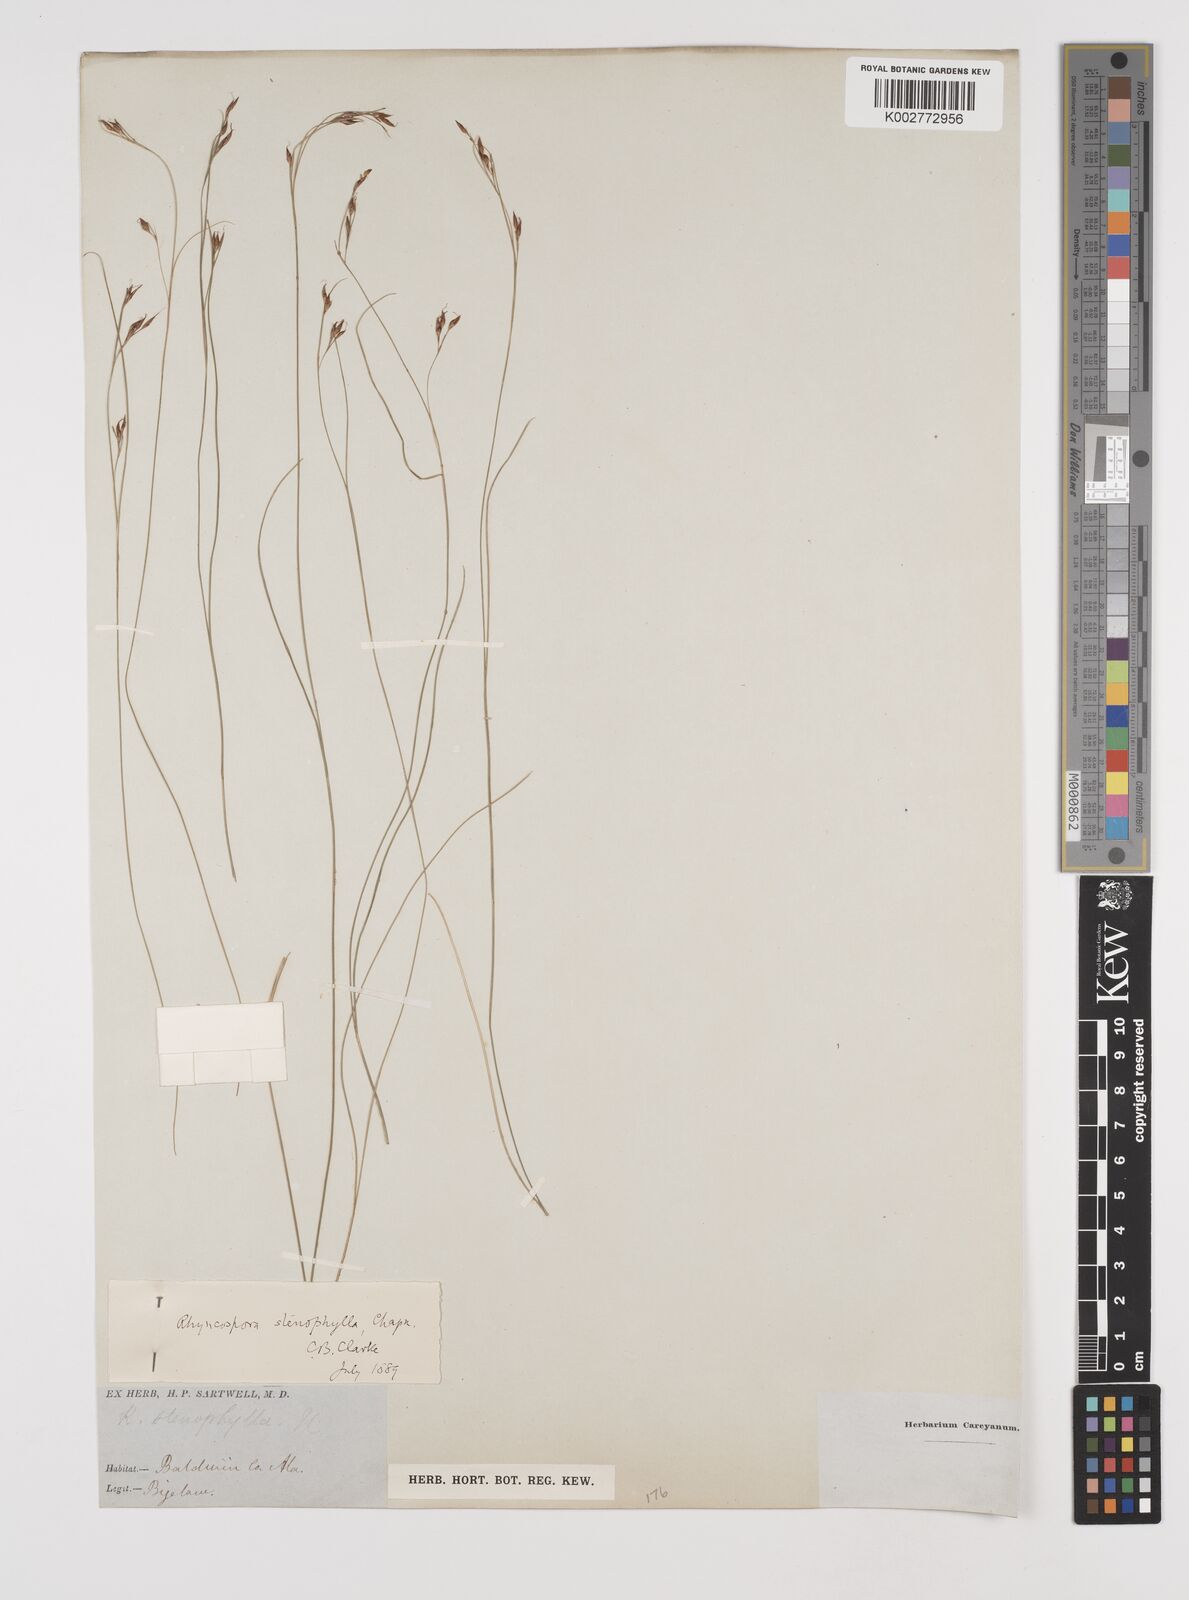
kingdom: Plantae
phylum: Tracheophyta
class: Liliopsida
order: Poales
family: Cyperaceae
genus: Rhynchospora
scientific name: Rhynchospora stenophylla
